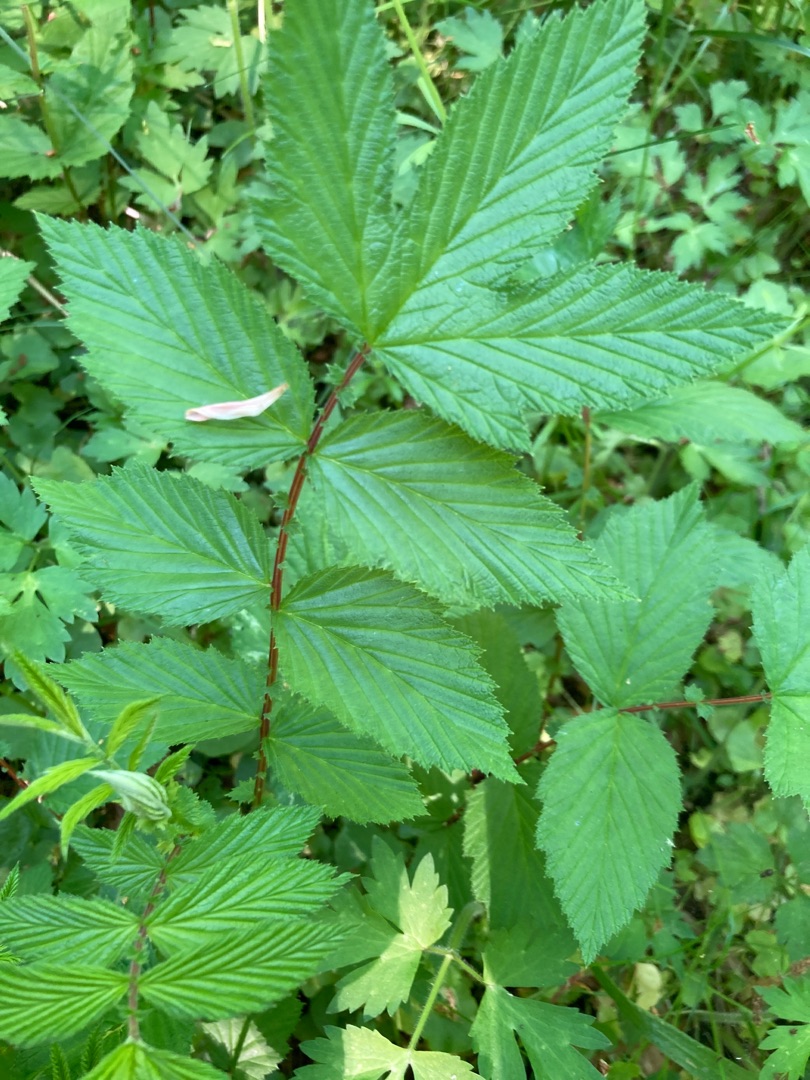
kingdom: Plantae
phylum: Tracheophyta
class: Magnoliopsida
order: Rosales
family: Rosaceae
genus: Filipendula
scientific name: Filipendula ulmaria
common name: Almindelig mjødurt
